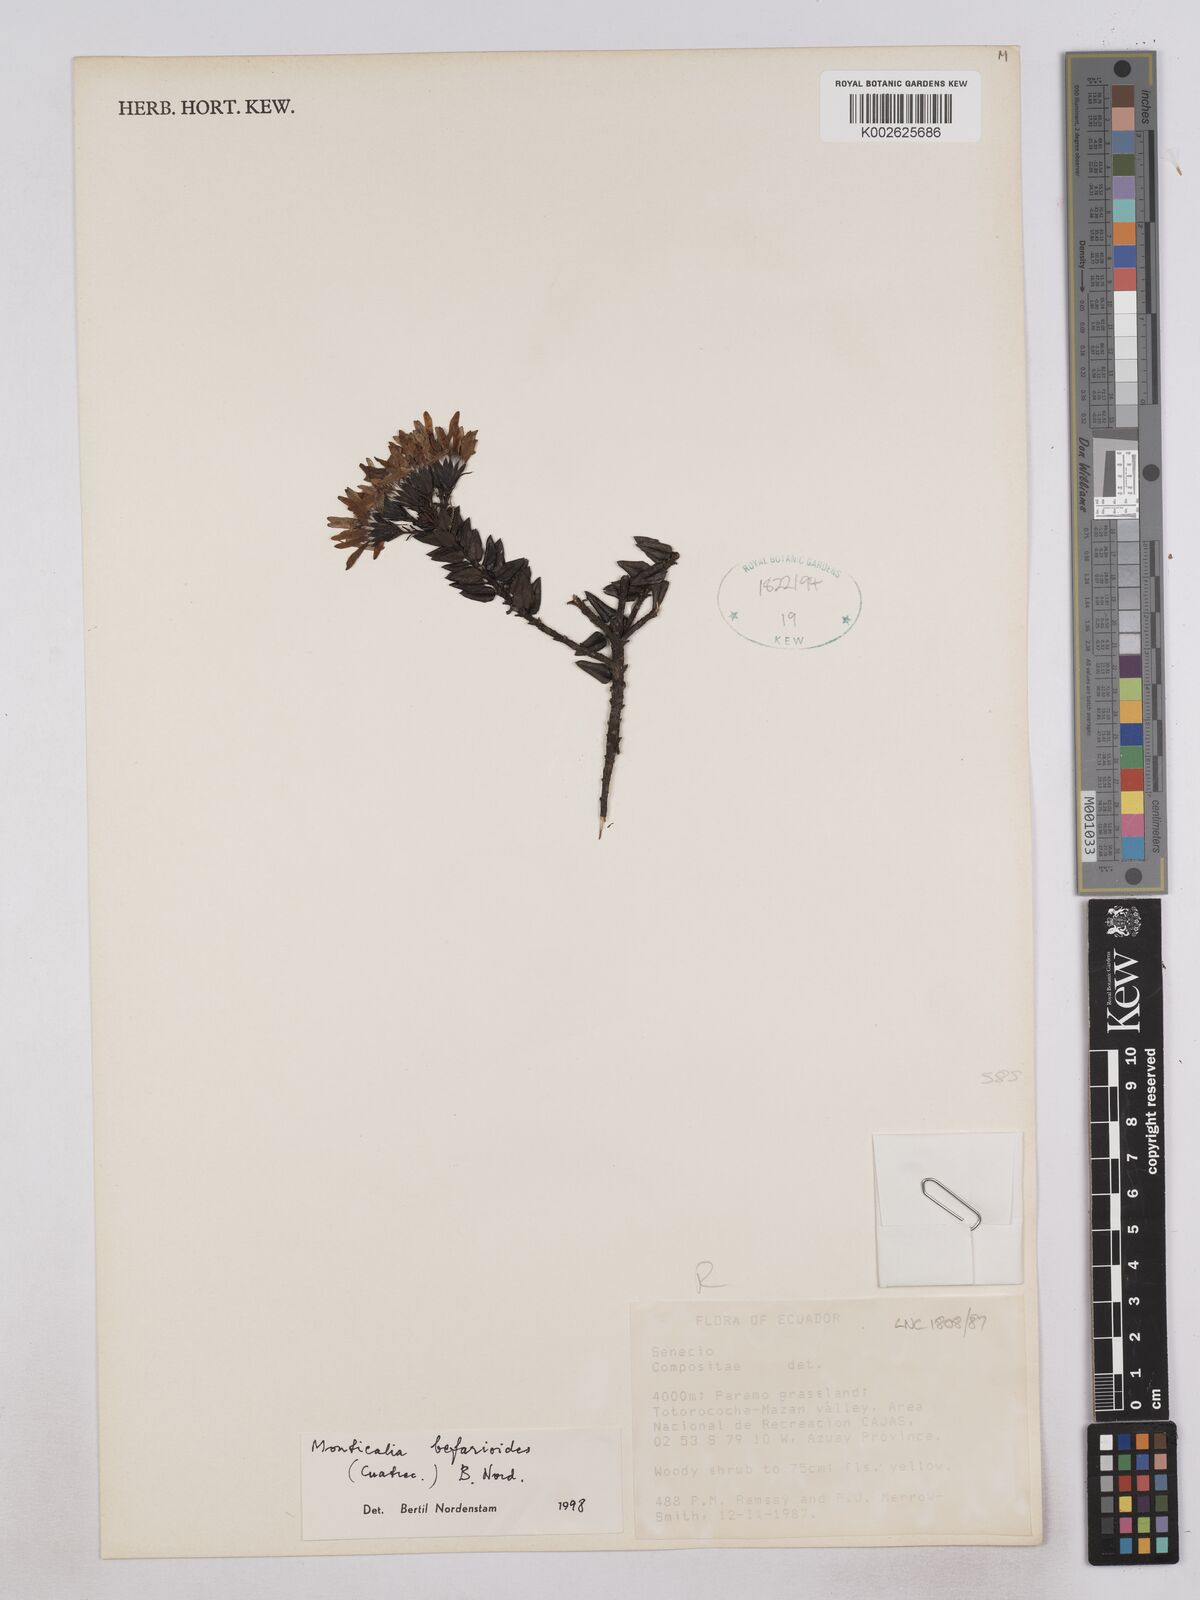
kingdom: Plantae
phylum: Tracheophyta
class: Magnoliopsida
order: Asterales
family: Asteraceae
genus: Monticalia
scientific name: Monticalia befarioides
